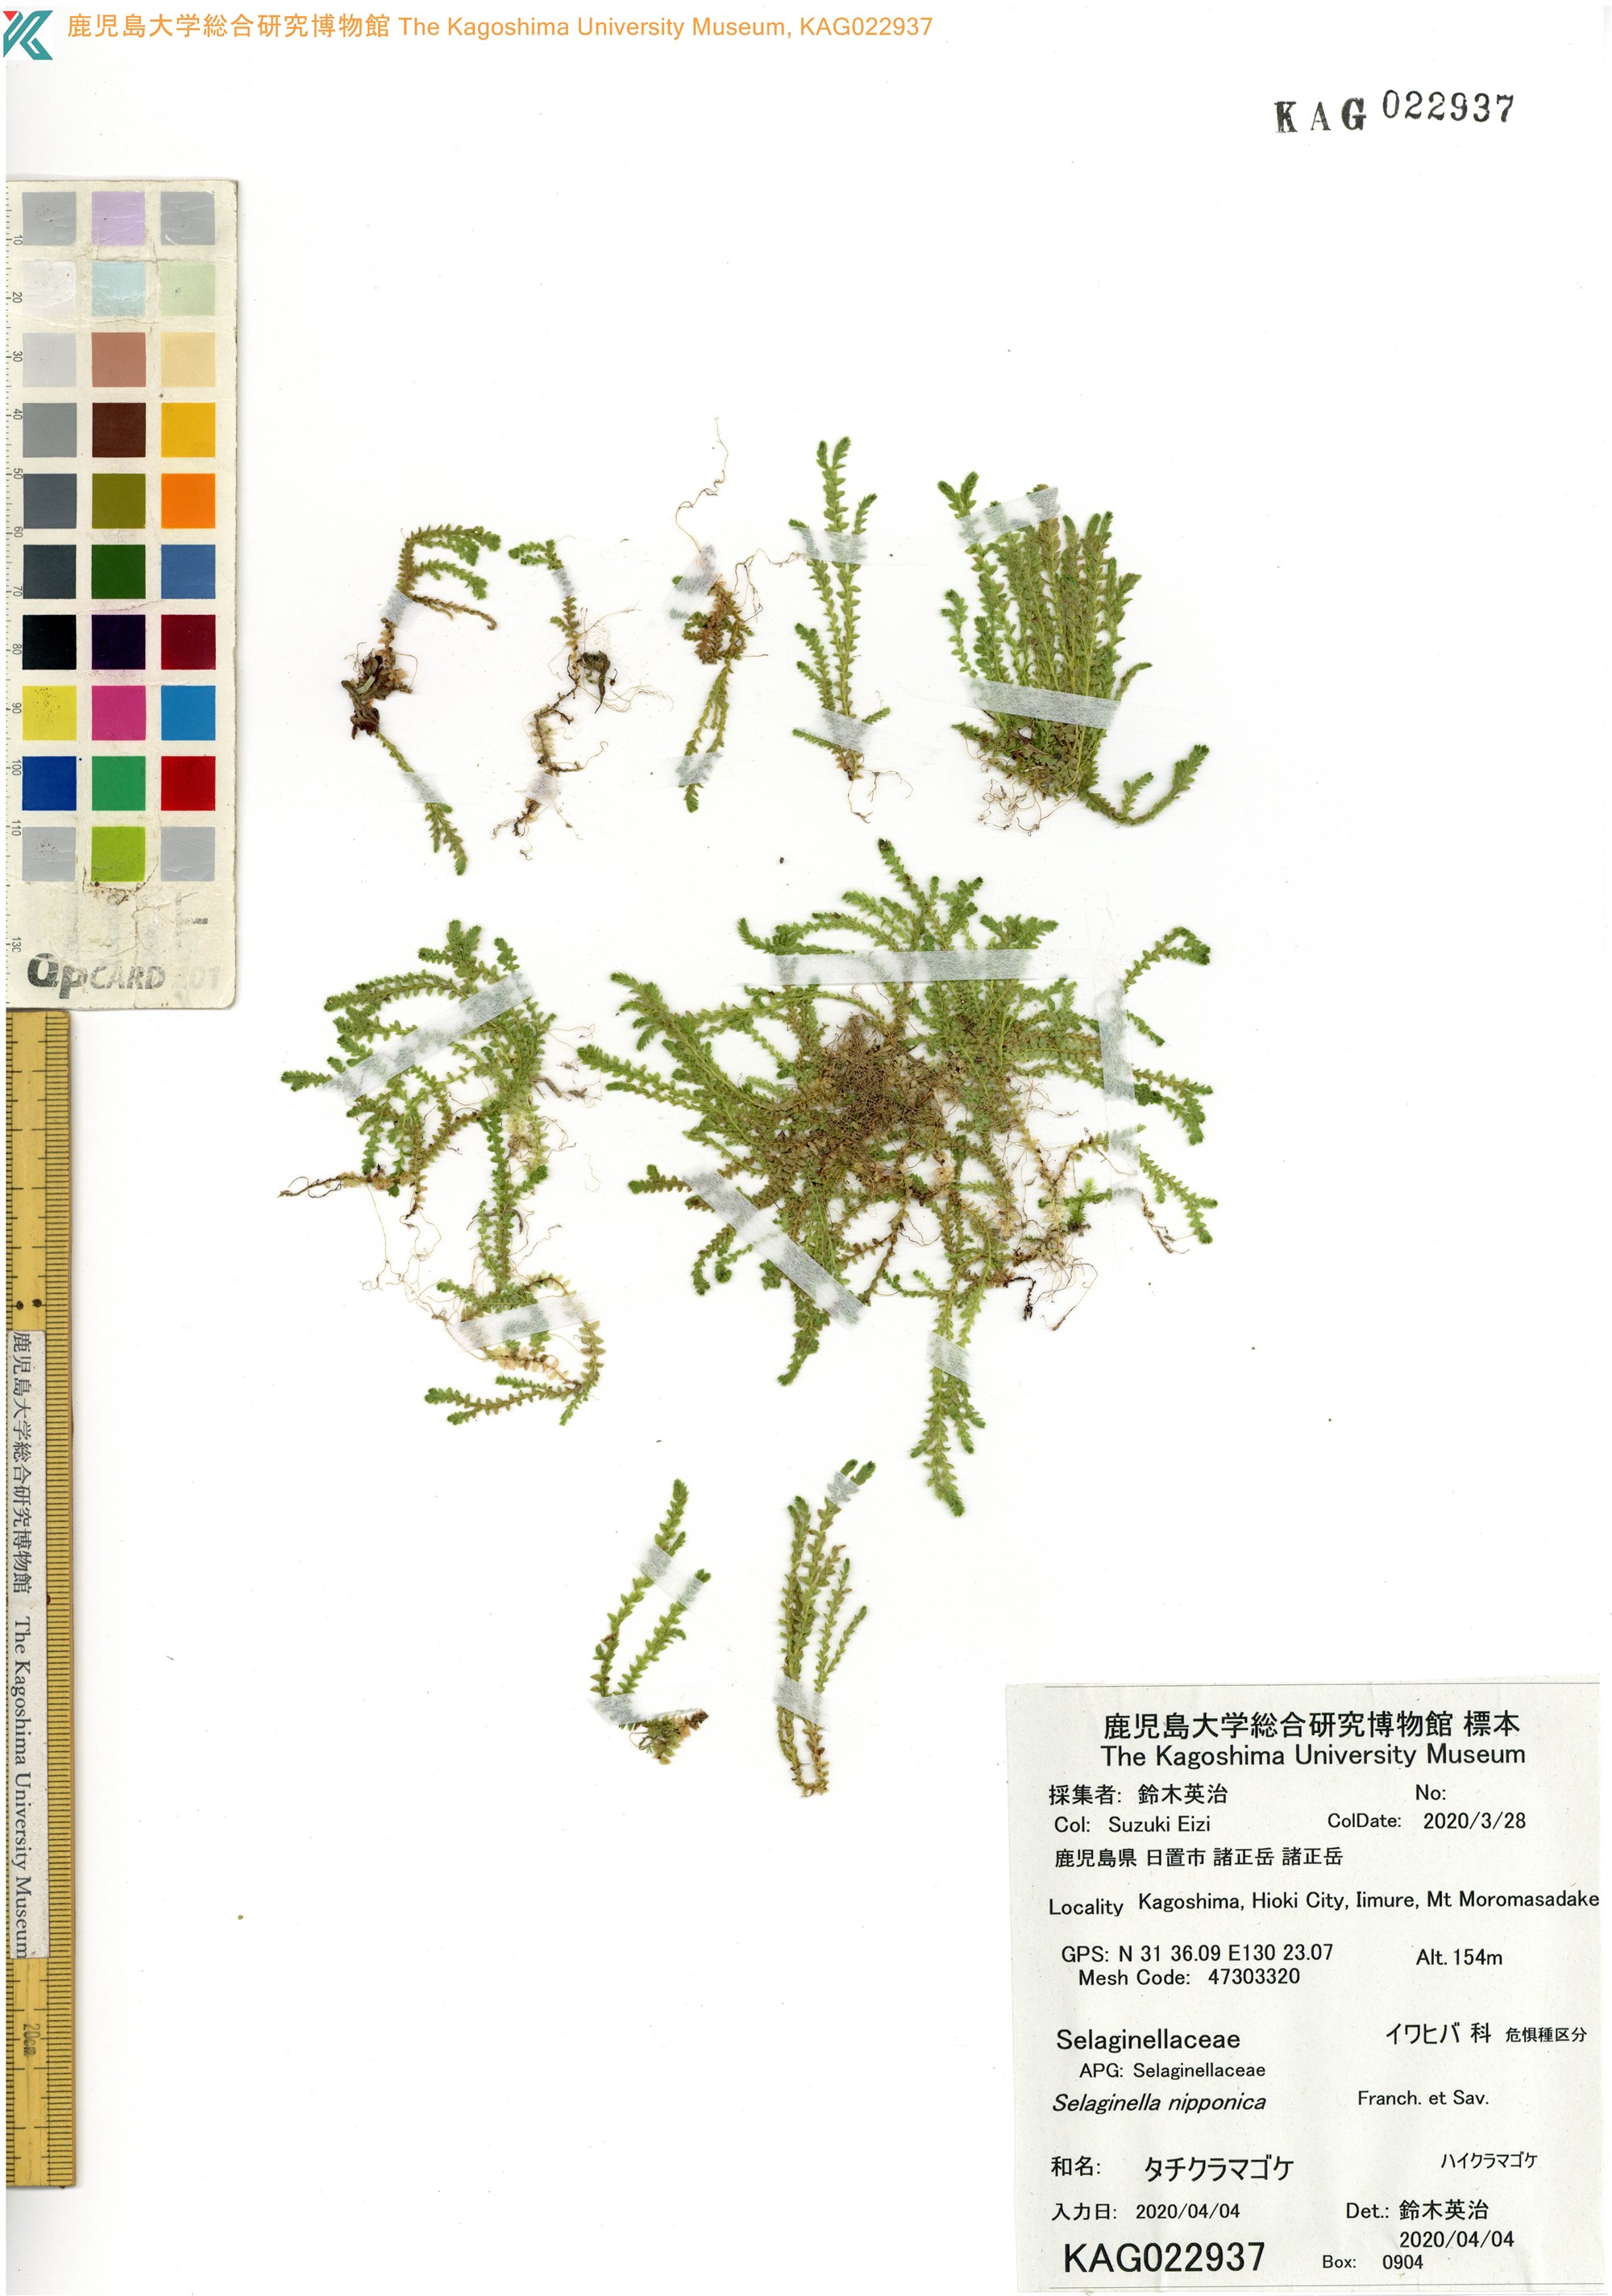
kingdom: Plantae
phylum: Tracheophyta
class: Lycopodiopsida
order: Selaginellales
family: Selaginellaceae
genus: Selaginella
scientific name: Selaginella nipponica
